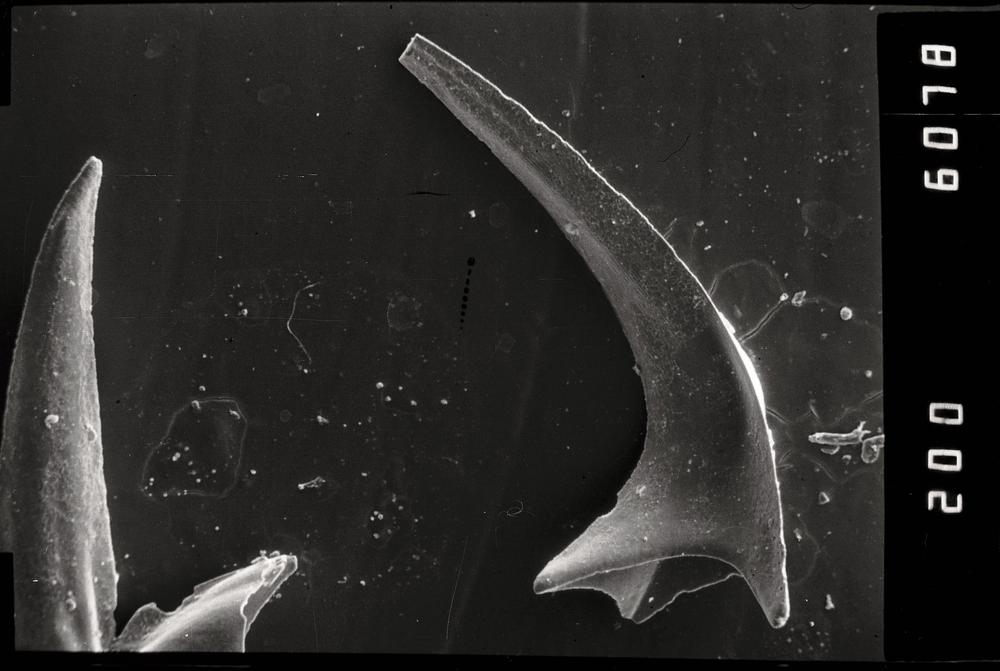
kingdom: Animalia
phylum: Chordata
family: Acodontidae
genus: Tripodus
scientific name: Tripodus
